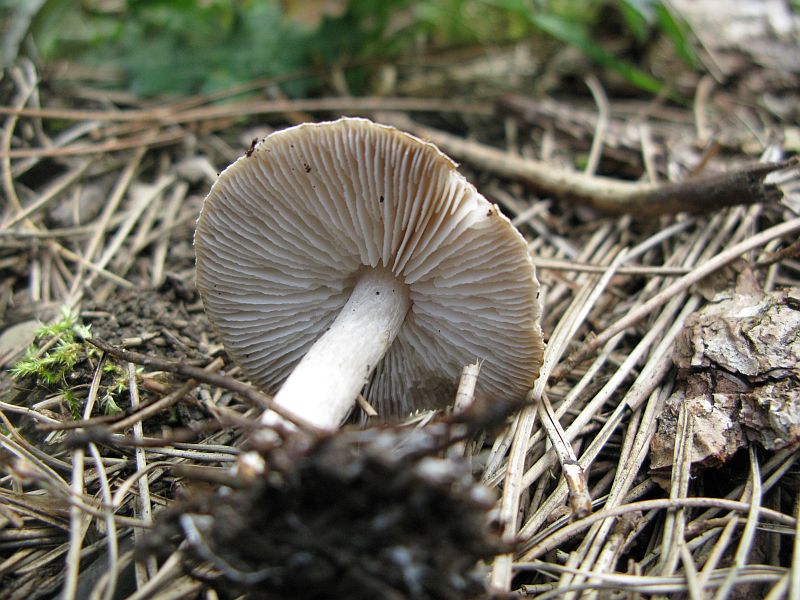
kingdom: Fungi
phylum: Basidiomycota
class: Agaricomycetes
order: Agaricales
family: Tricholomataceae
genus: Tricholoma
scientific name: Tricholoma scalpturatum
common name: gulplettet ridderhat
